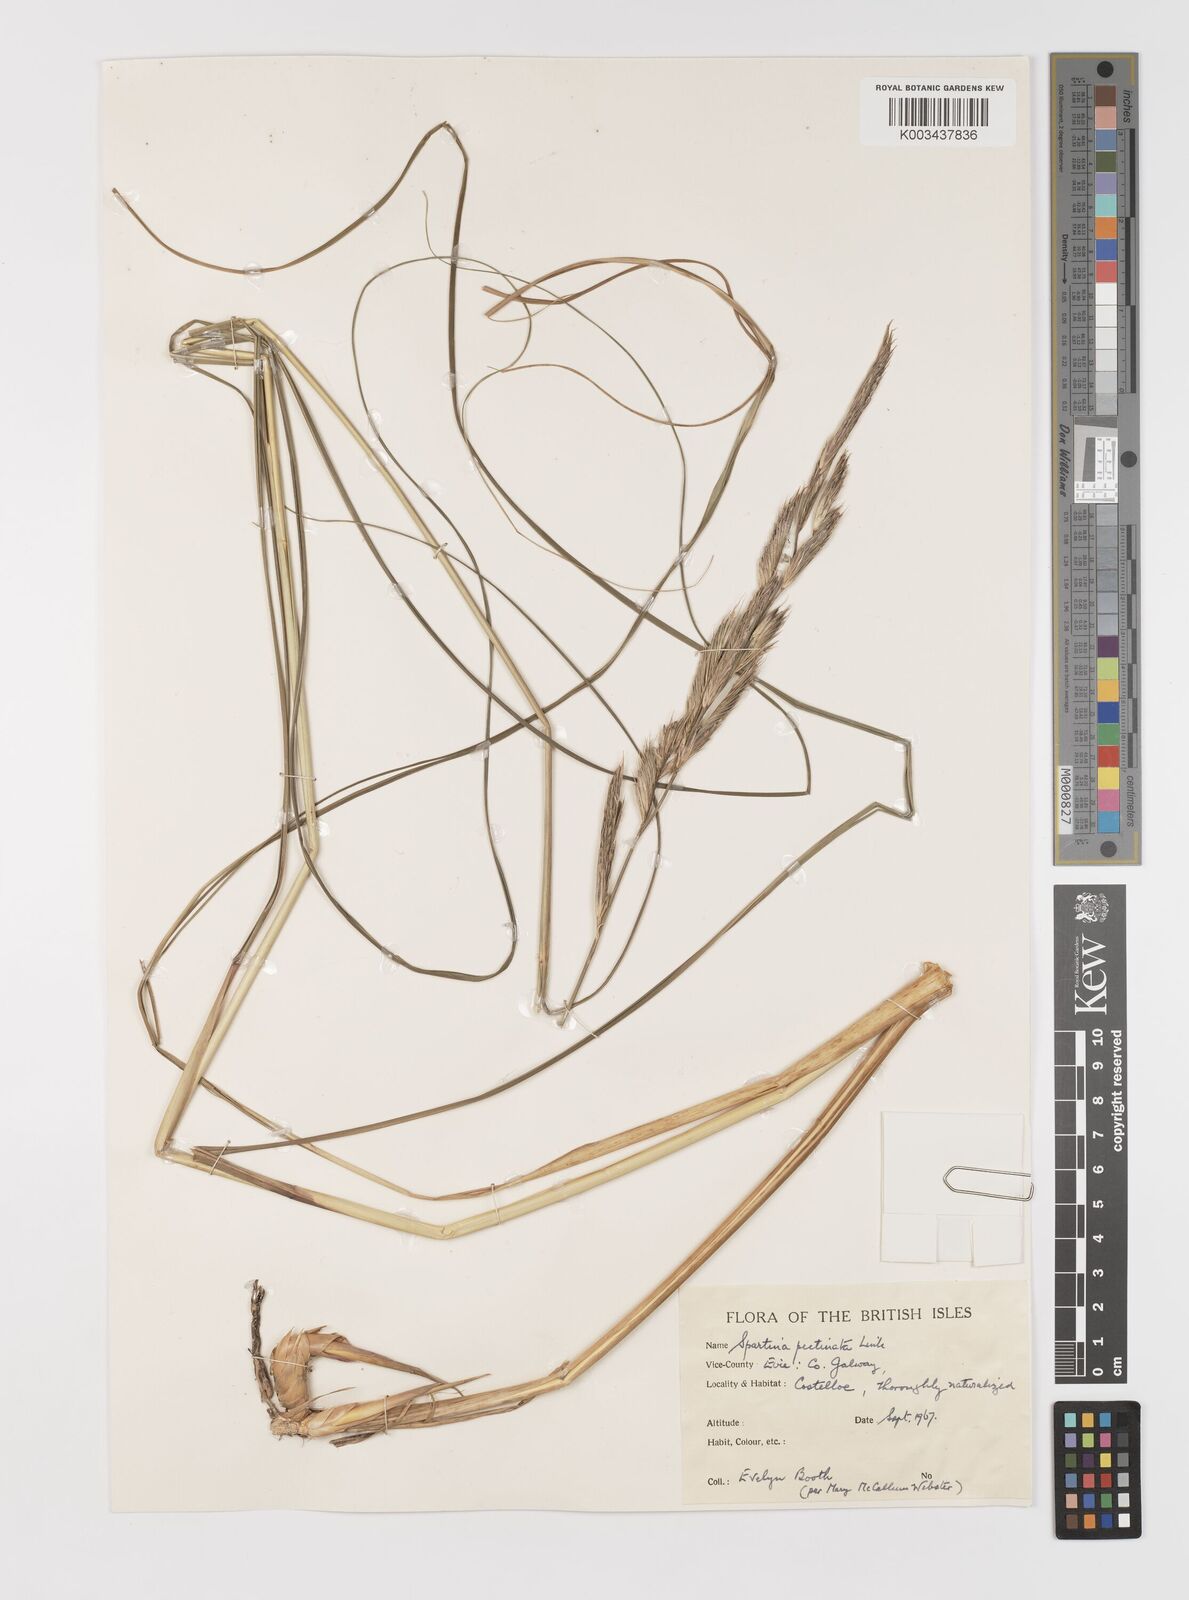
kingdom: Plantae
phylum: Tracheophyta
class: Liliopsida
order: Poales
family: Poaceae
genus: Sporobolus
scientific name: Sporobolus michauxianus
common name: Freshwater cordgrass
